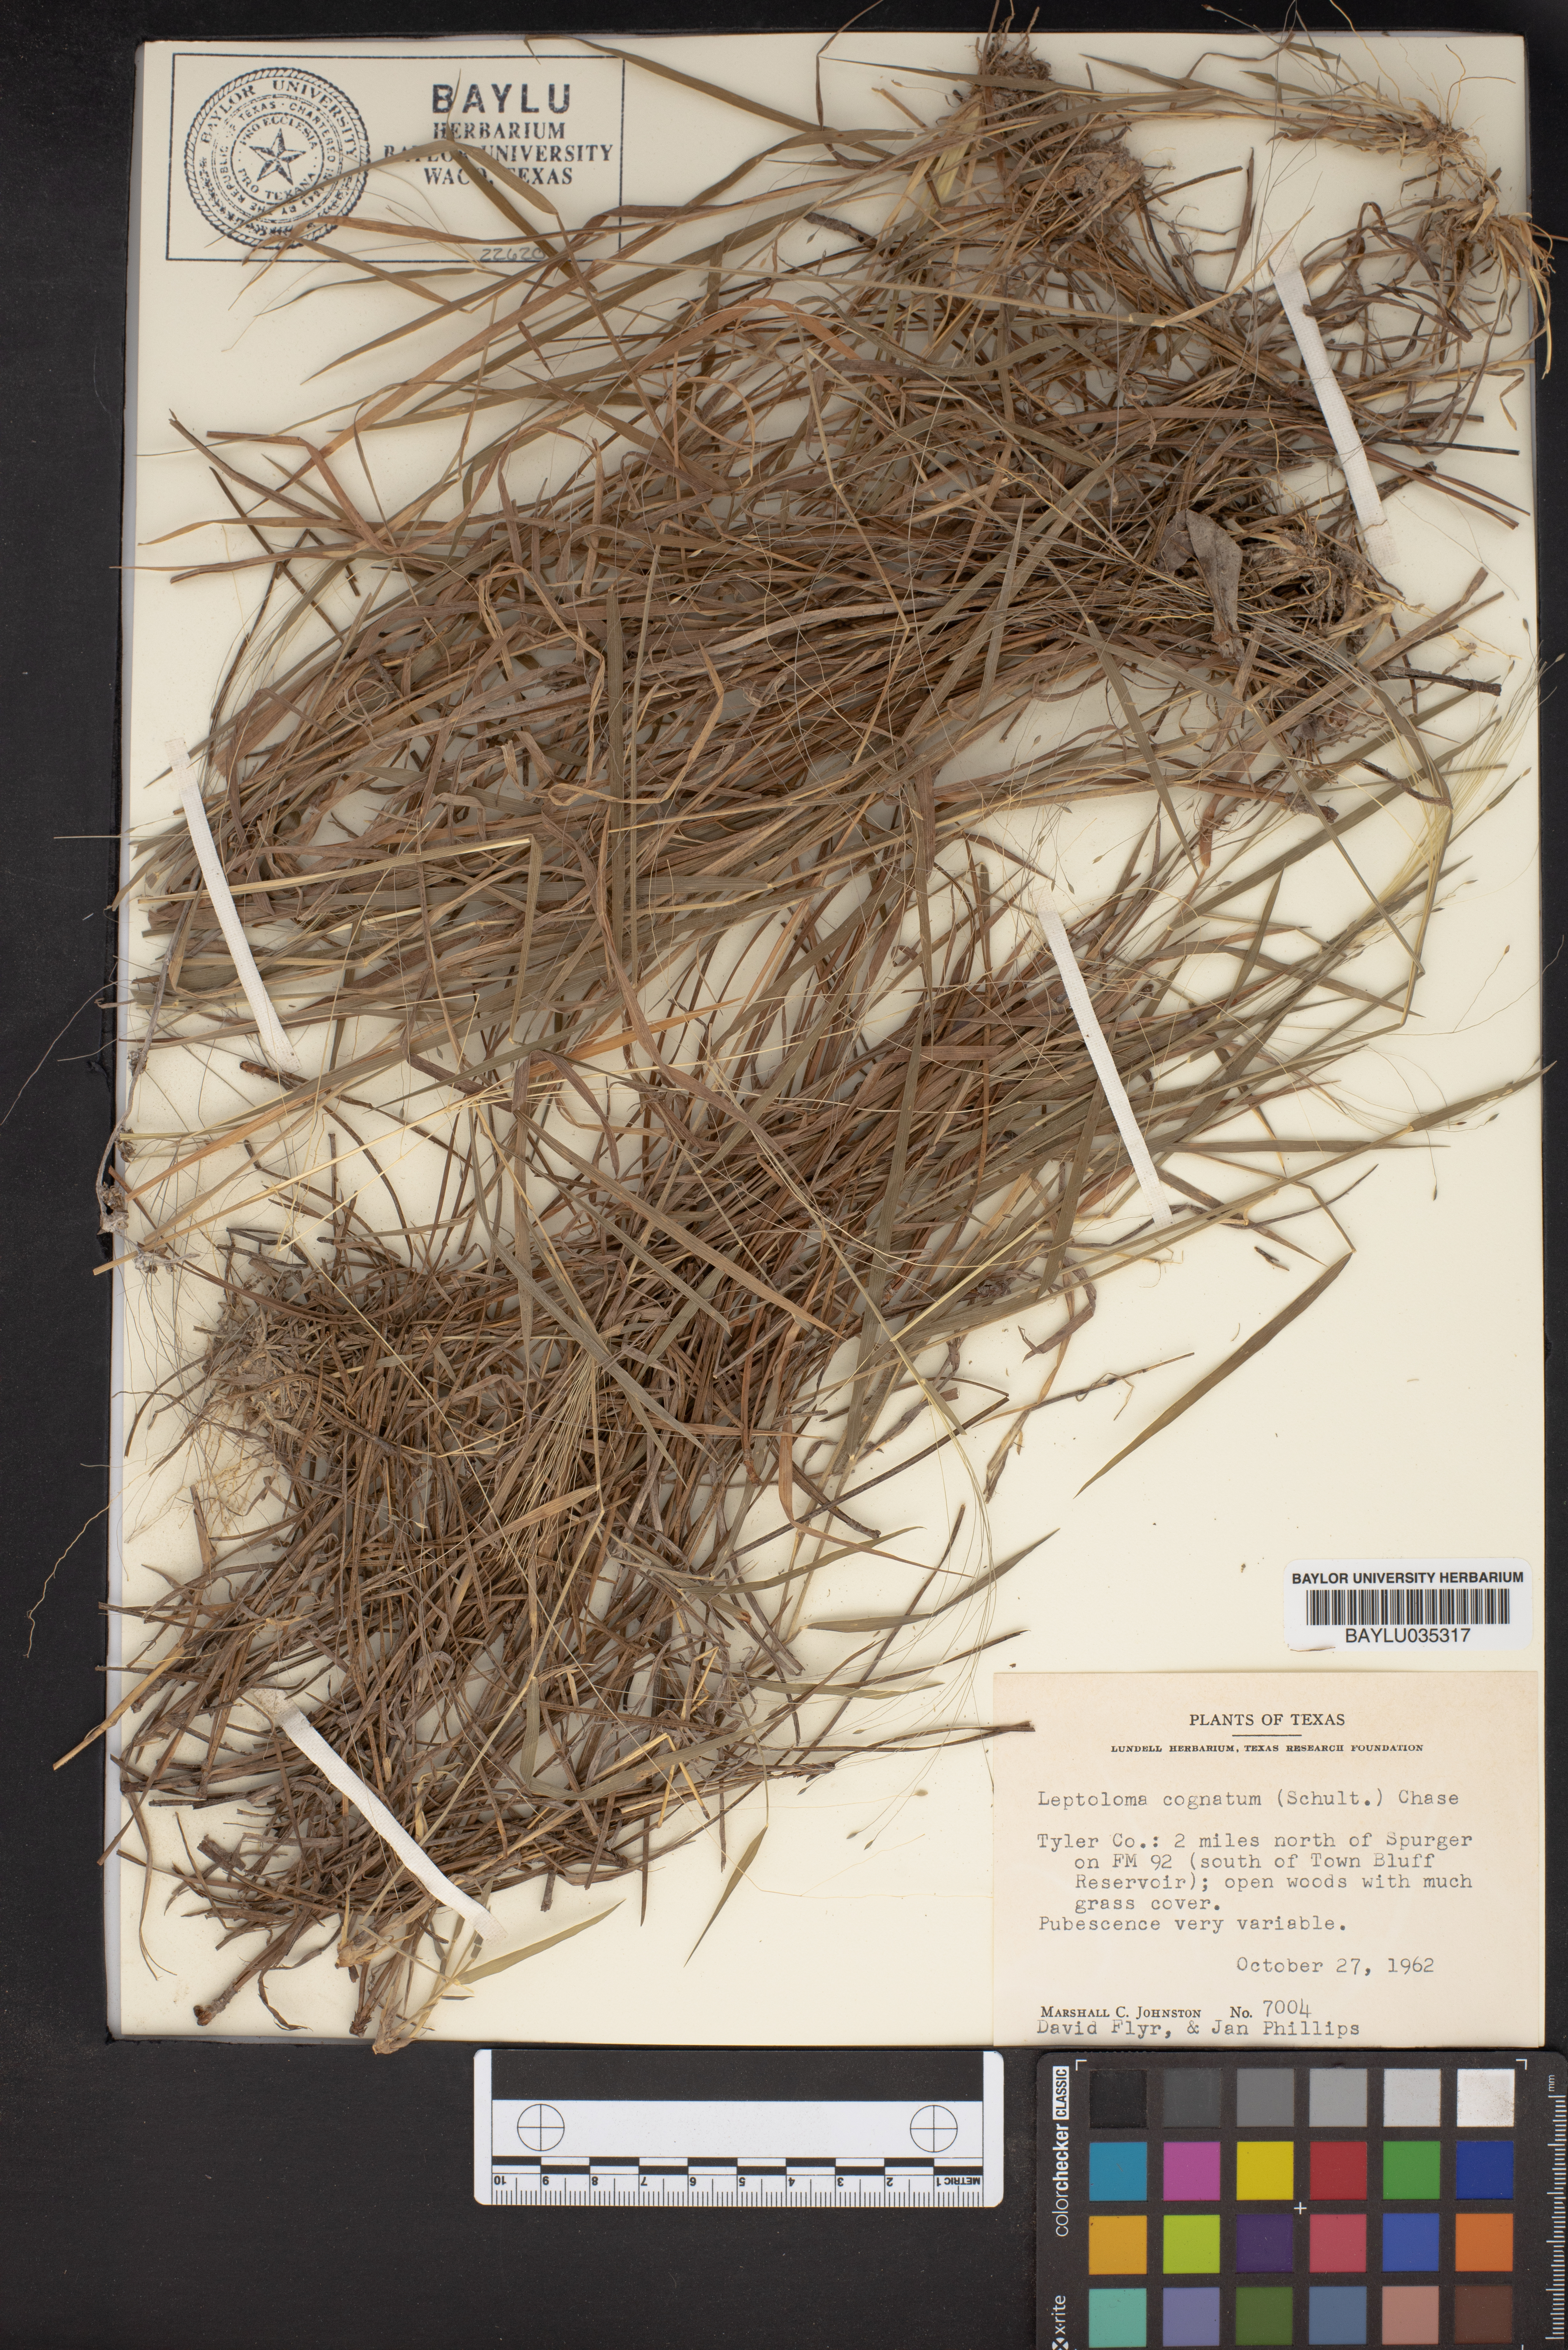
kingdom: Plantae
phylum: Tracheophyta
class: Liliopsida
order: Poales
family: Poaceae
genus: Digitaria
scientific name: Digitaria cognata
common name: Fall witchgrass
